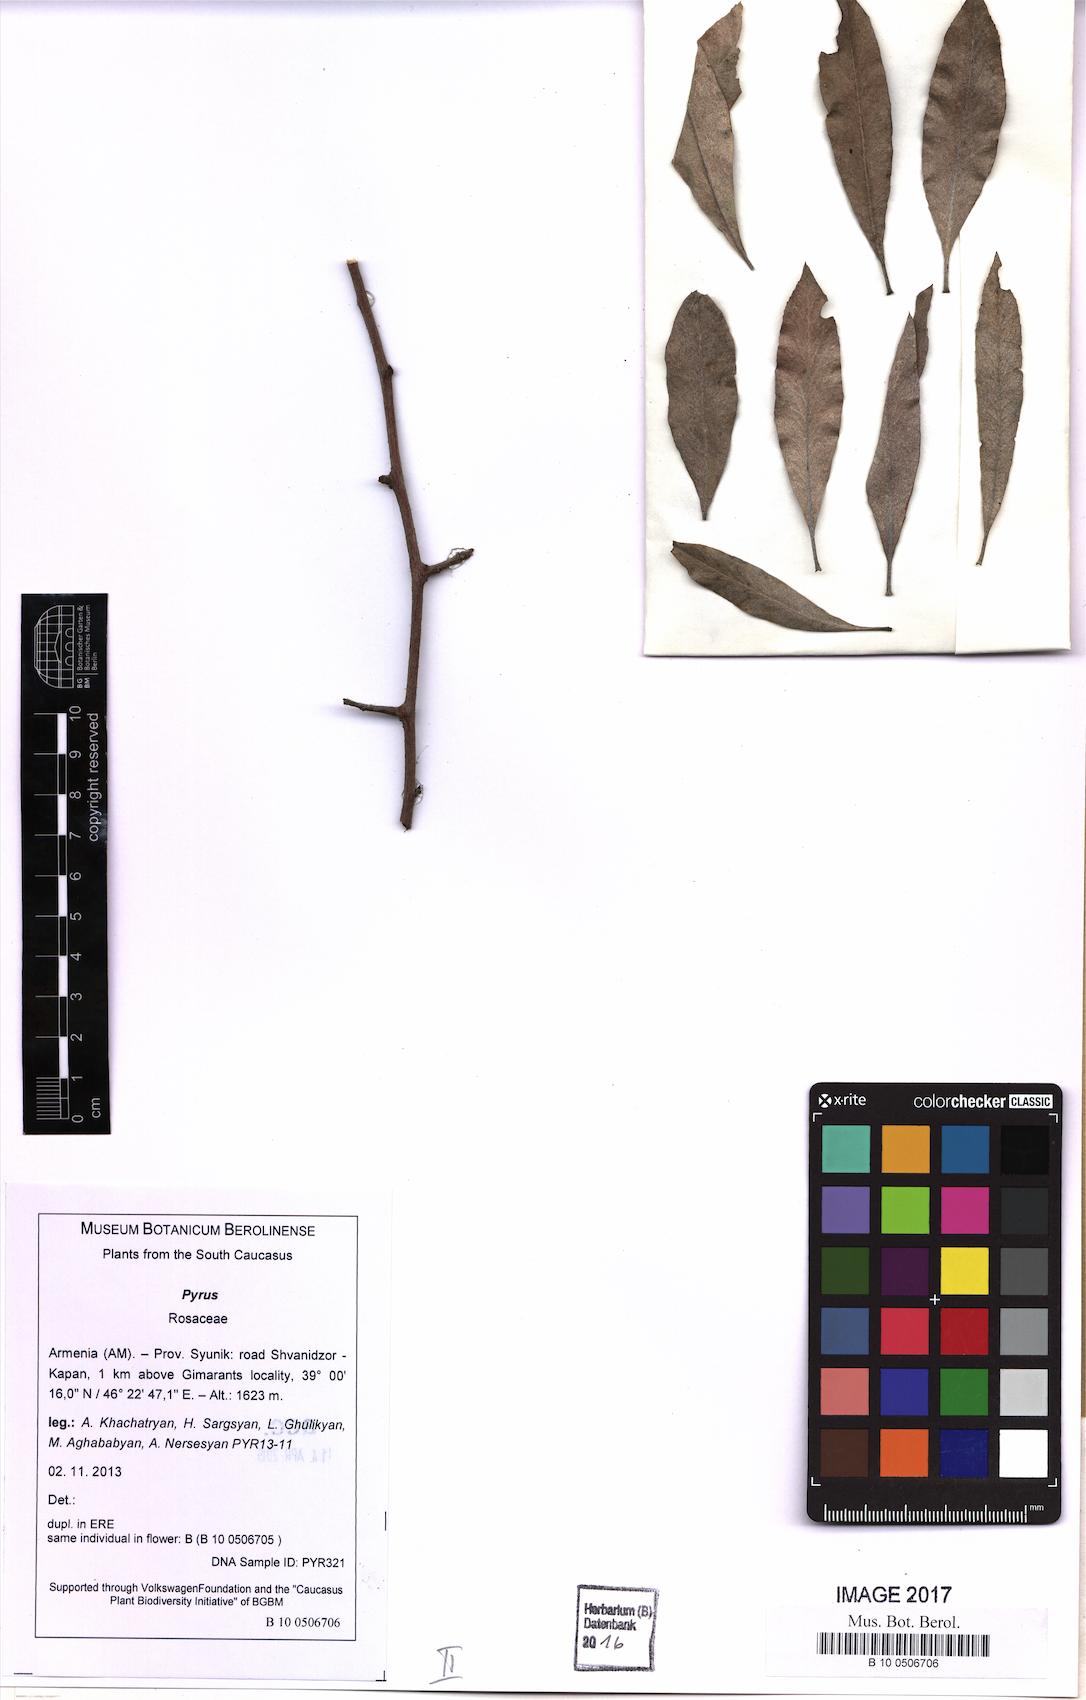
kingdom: Plantae
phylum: Tracheophyta
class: Magnoliopsida
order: Rosales
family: Rosaceae
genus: Pyrus
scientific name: Pyrus
